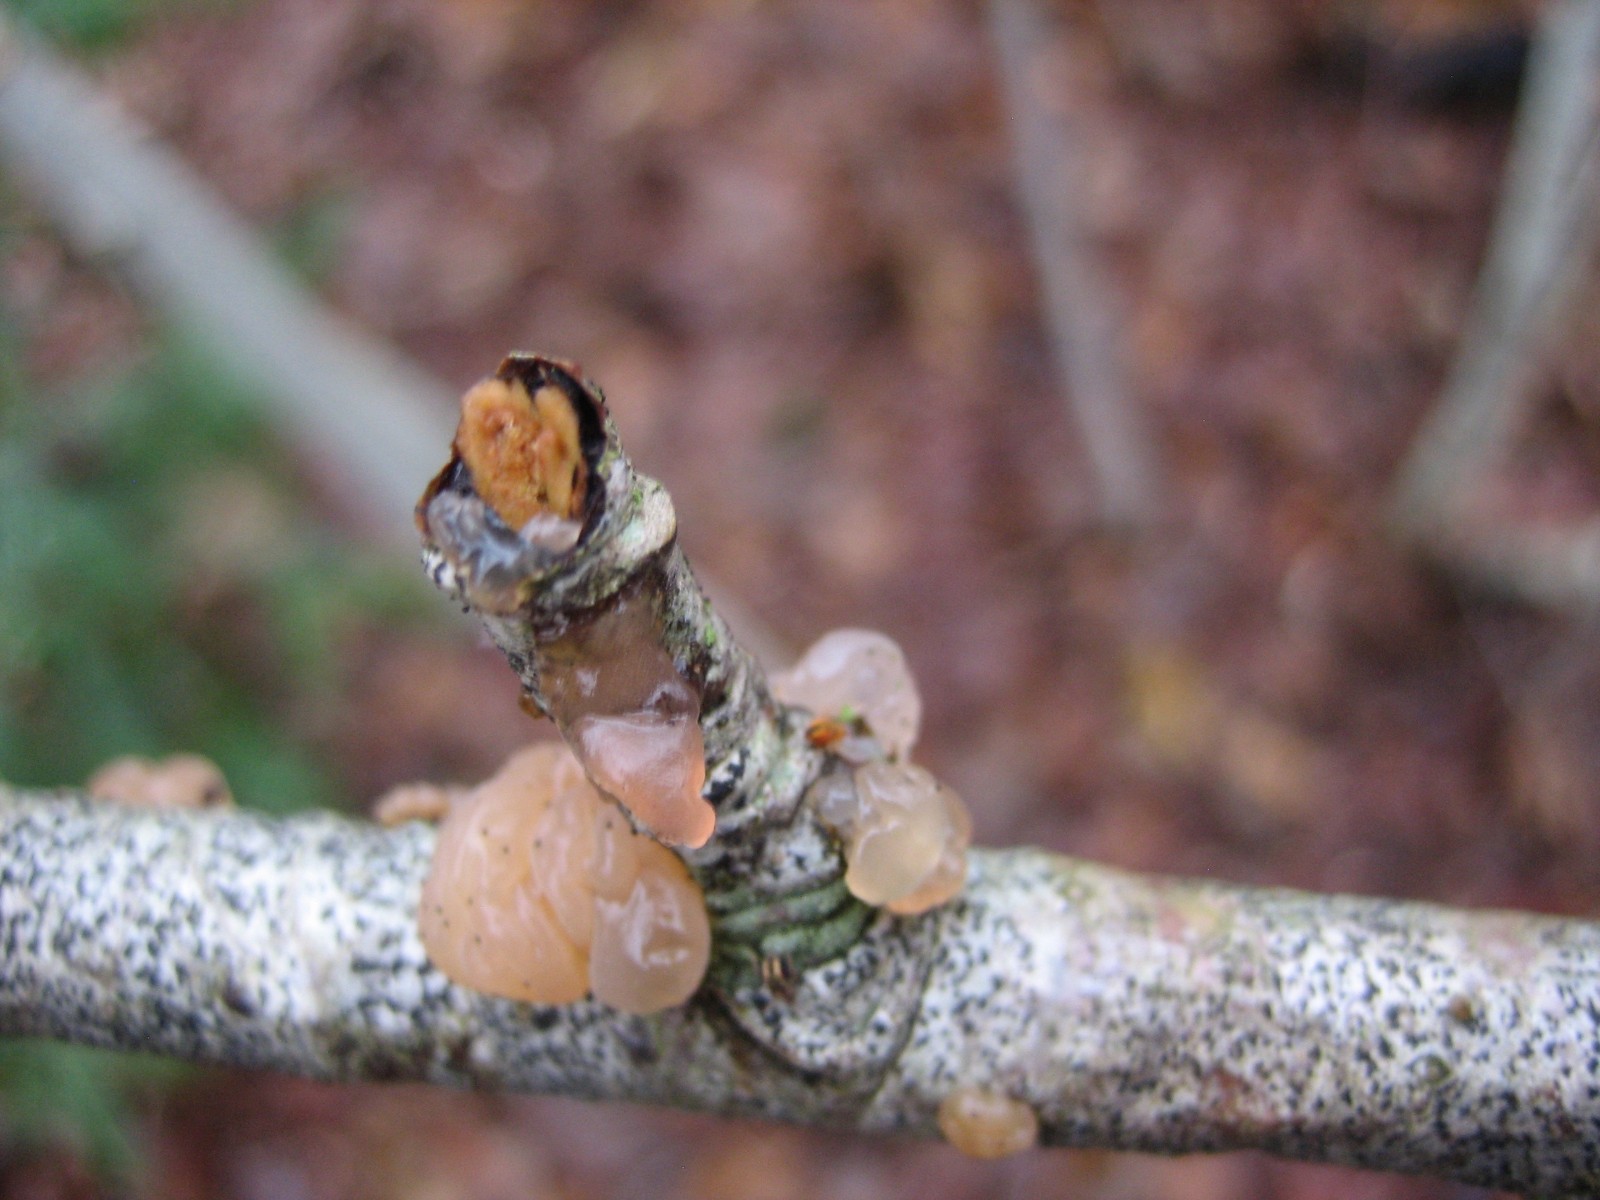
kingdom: Fungi
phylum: Basidiomycota
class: Agaricomycetes
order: Auriculariales
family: Hyaloriaceae
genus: Myxarium
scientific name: Myxarium hyalinum
